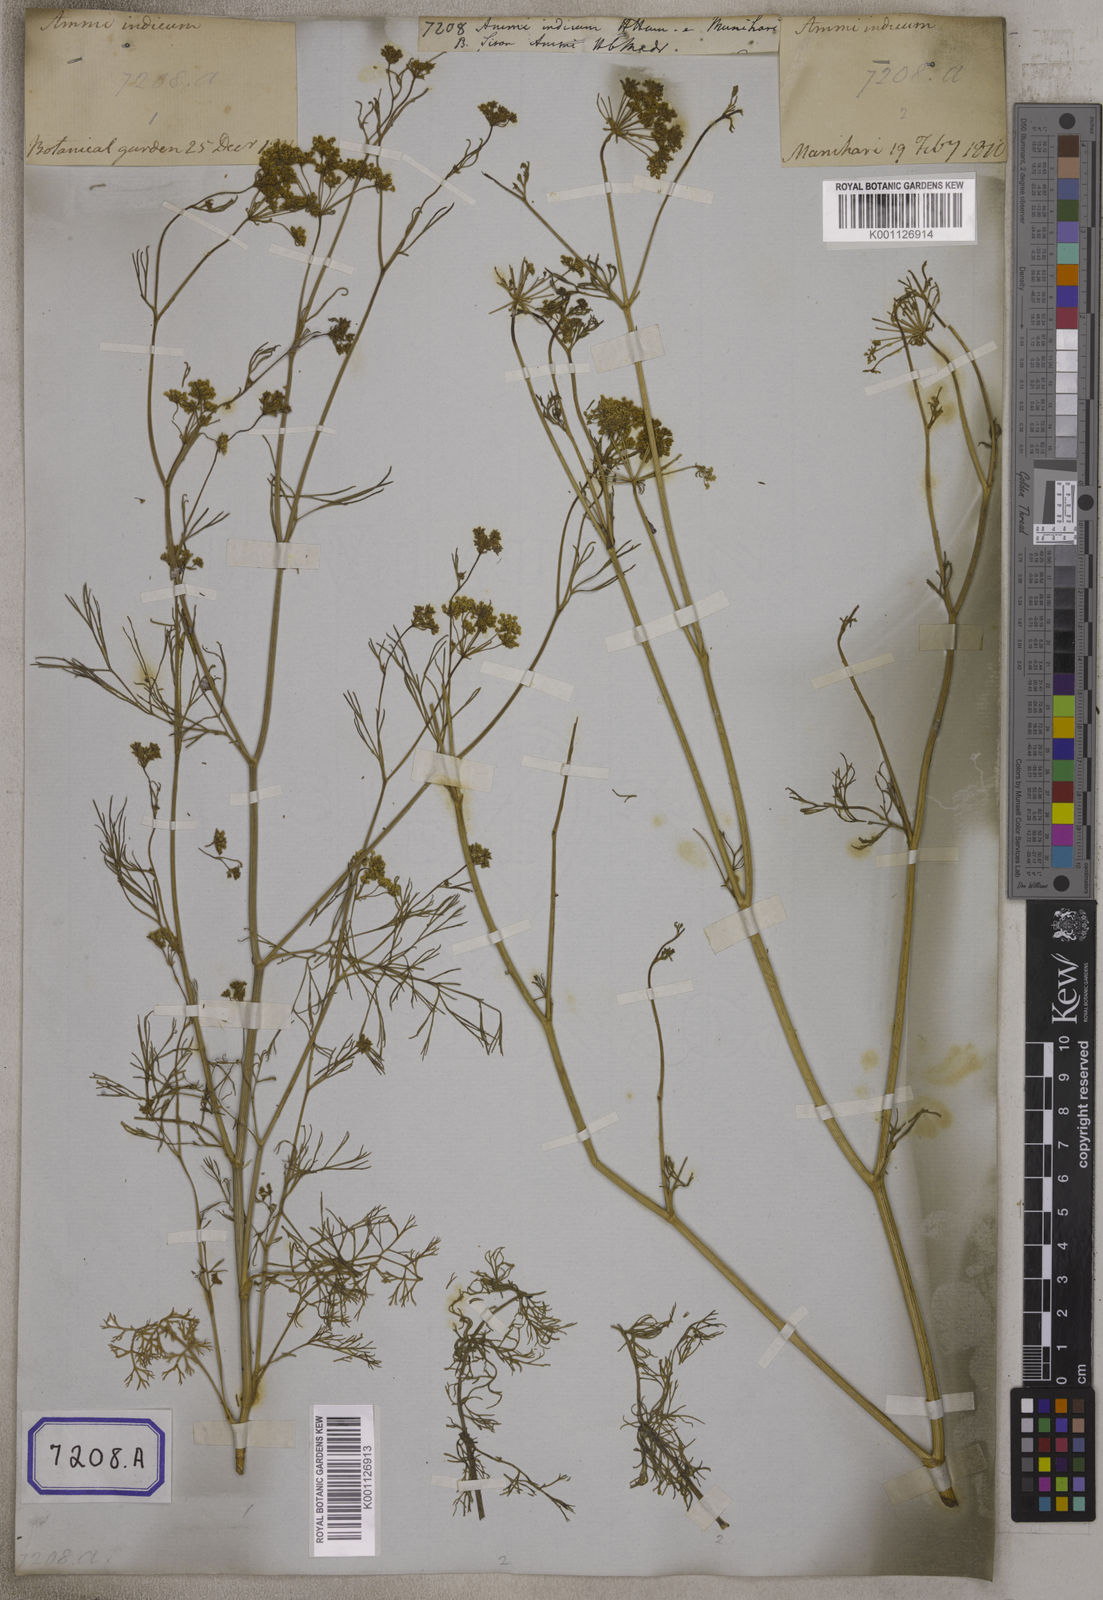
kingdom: Plantae
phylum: Tracheophyta
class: Magnoliopsida
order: Apiales
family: Apiaceae
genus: Ammi
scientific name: Ammi
